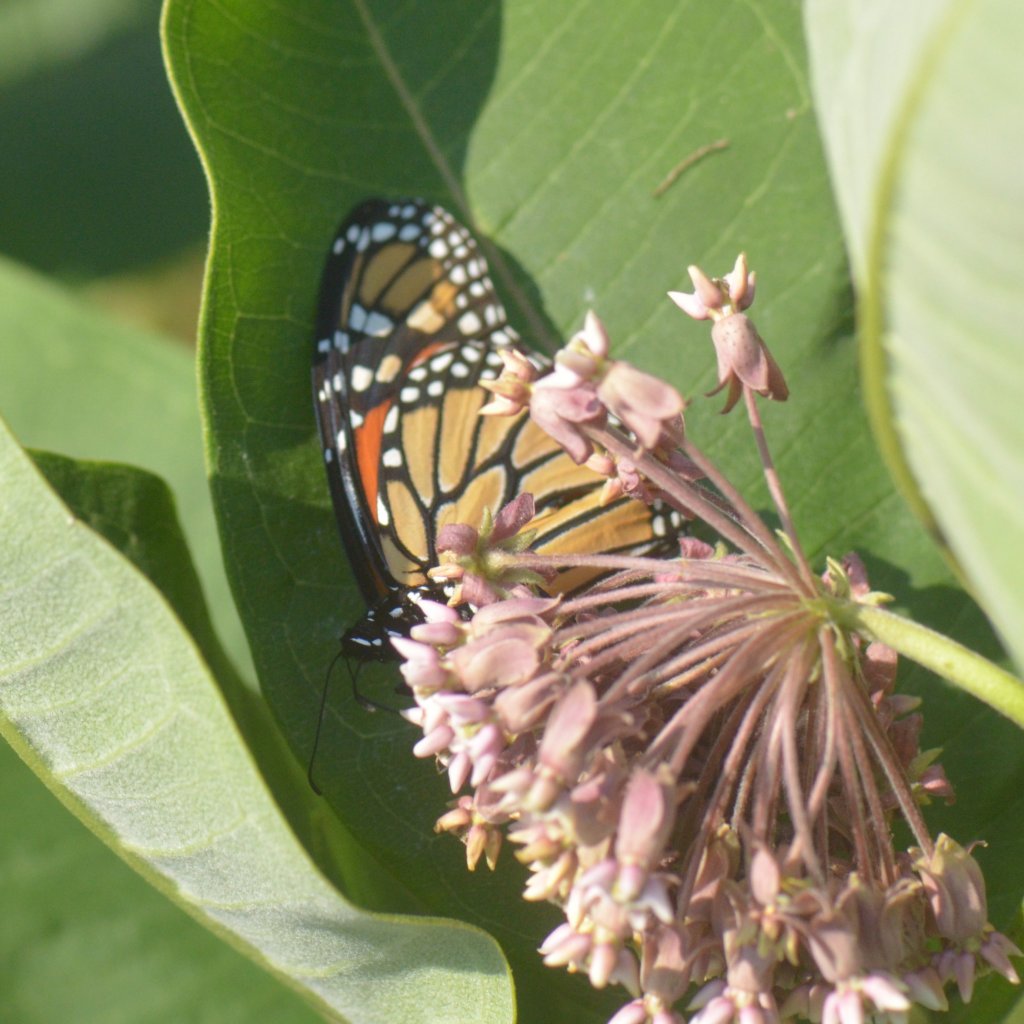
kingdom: Animalia
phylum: Arthropoda
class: Insecta
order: Lepidoptera
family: Nymphalidae
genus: Danaus
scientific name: Danaus plexippus
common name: Monarch
